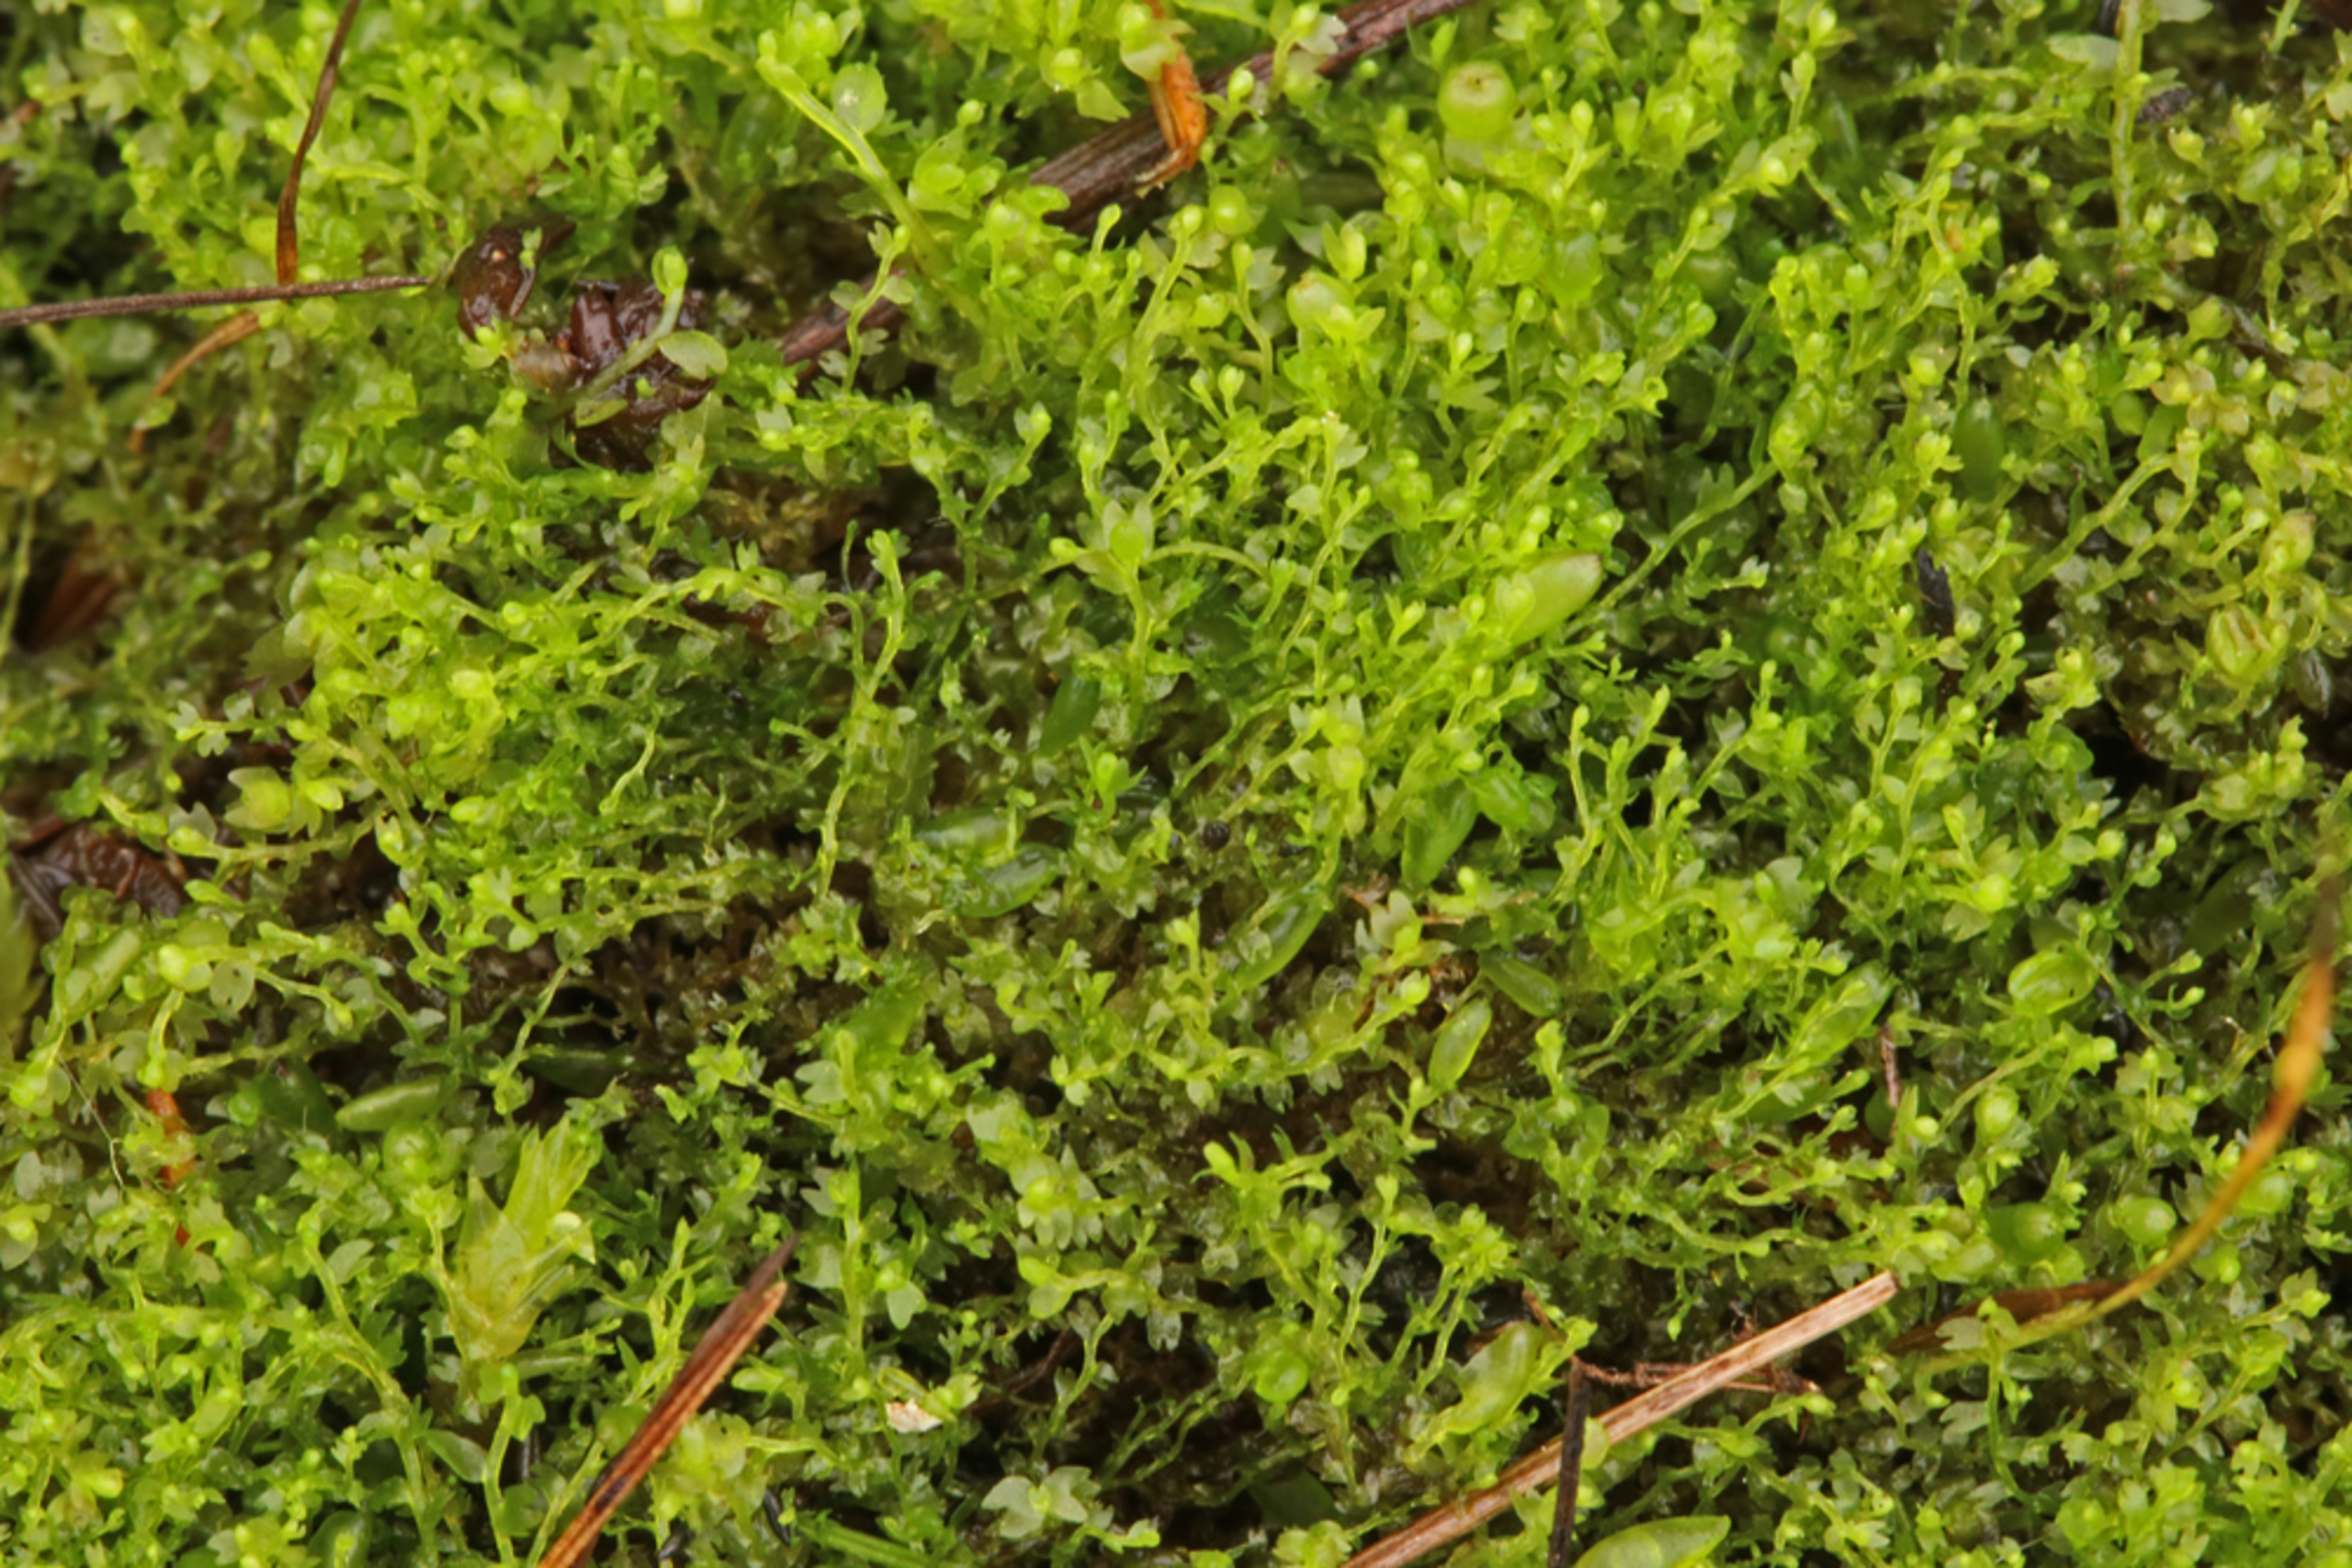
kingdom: Plantae
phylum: Marchantiophyta
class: Jungermanniopsida
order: Jungermanniales
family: Anastrophyllaceae
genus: Gymnocolea
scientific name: Gymnocolea inflata
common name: Opblæst blæremos
